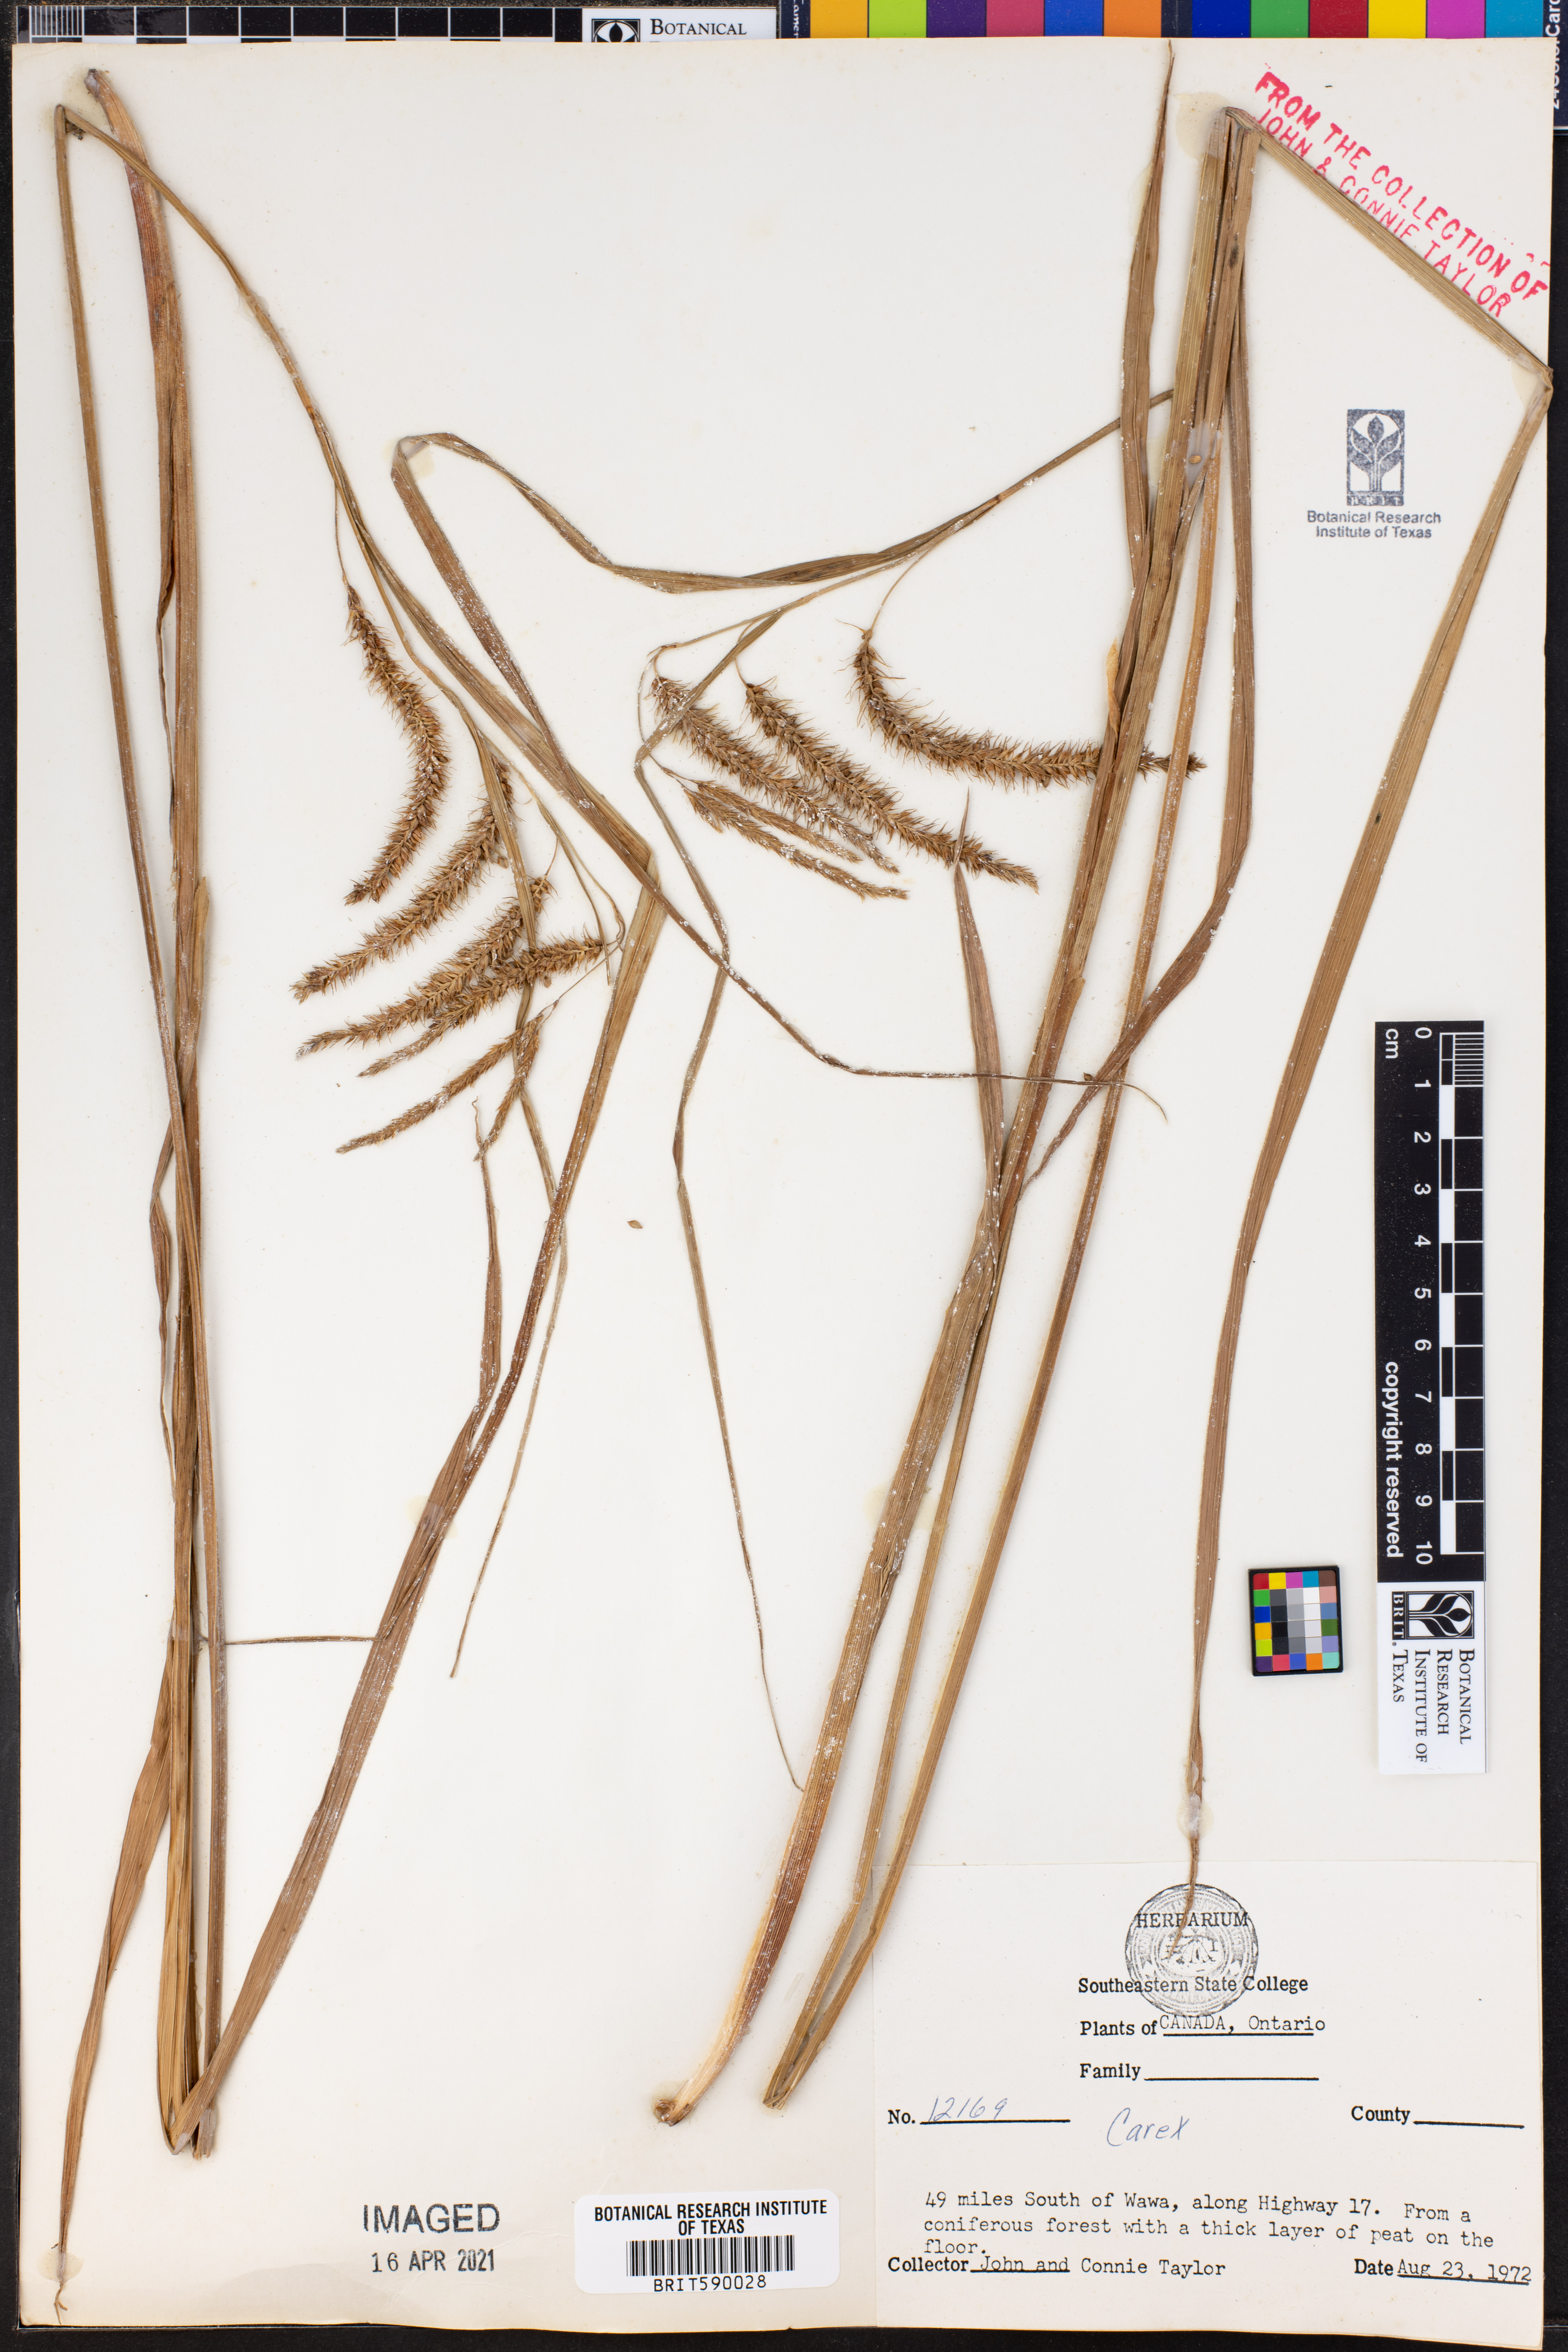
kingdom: Plantae
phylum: Tracheophyta
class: Liliopsida
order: Poales
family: Cyperaceae
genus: Carex
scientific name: Carex
